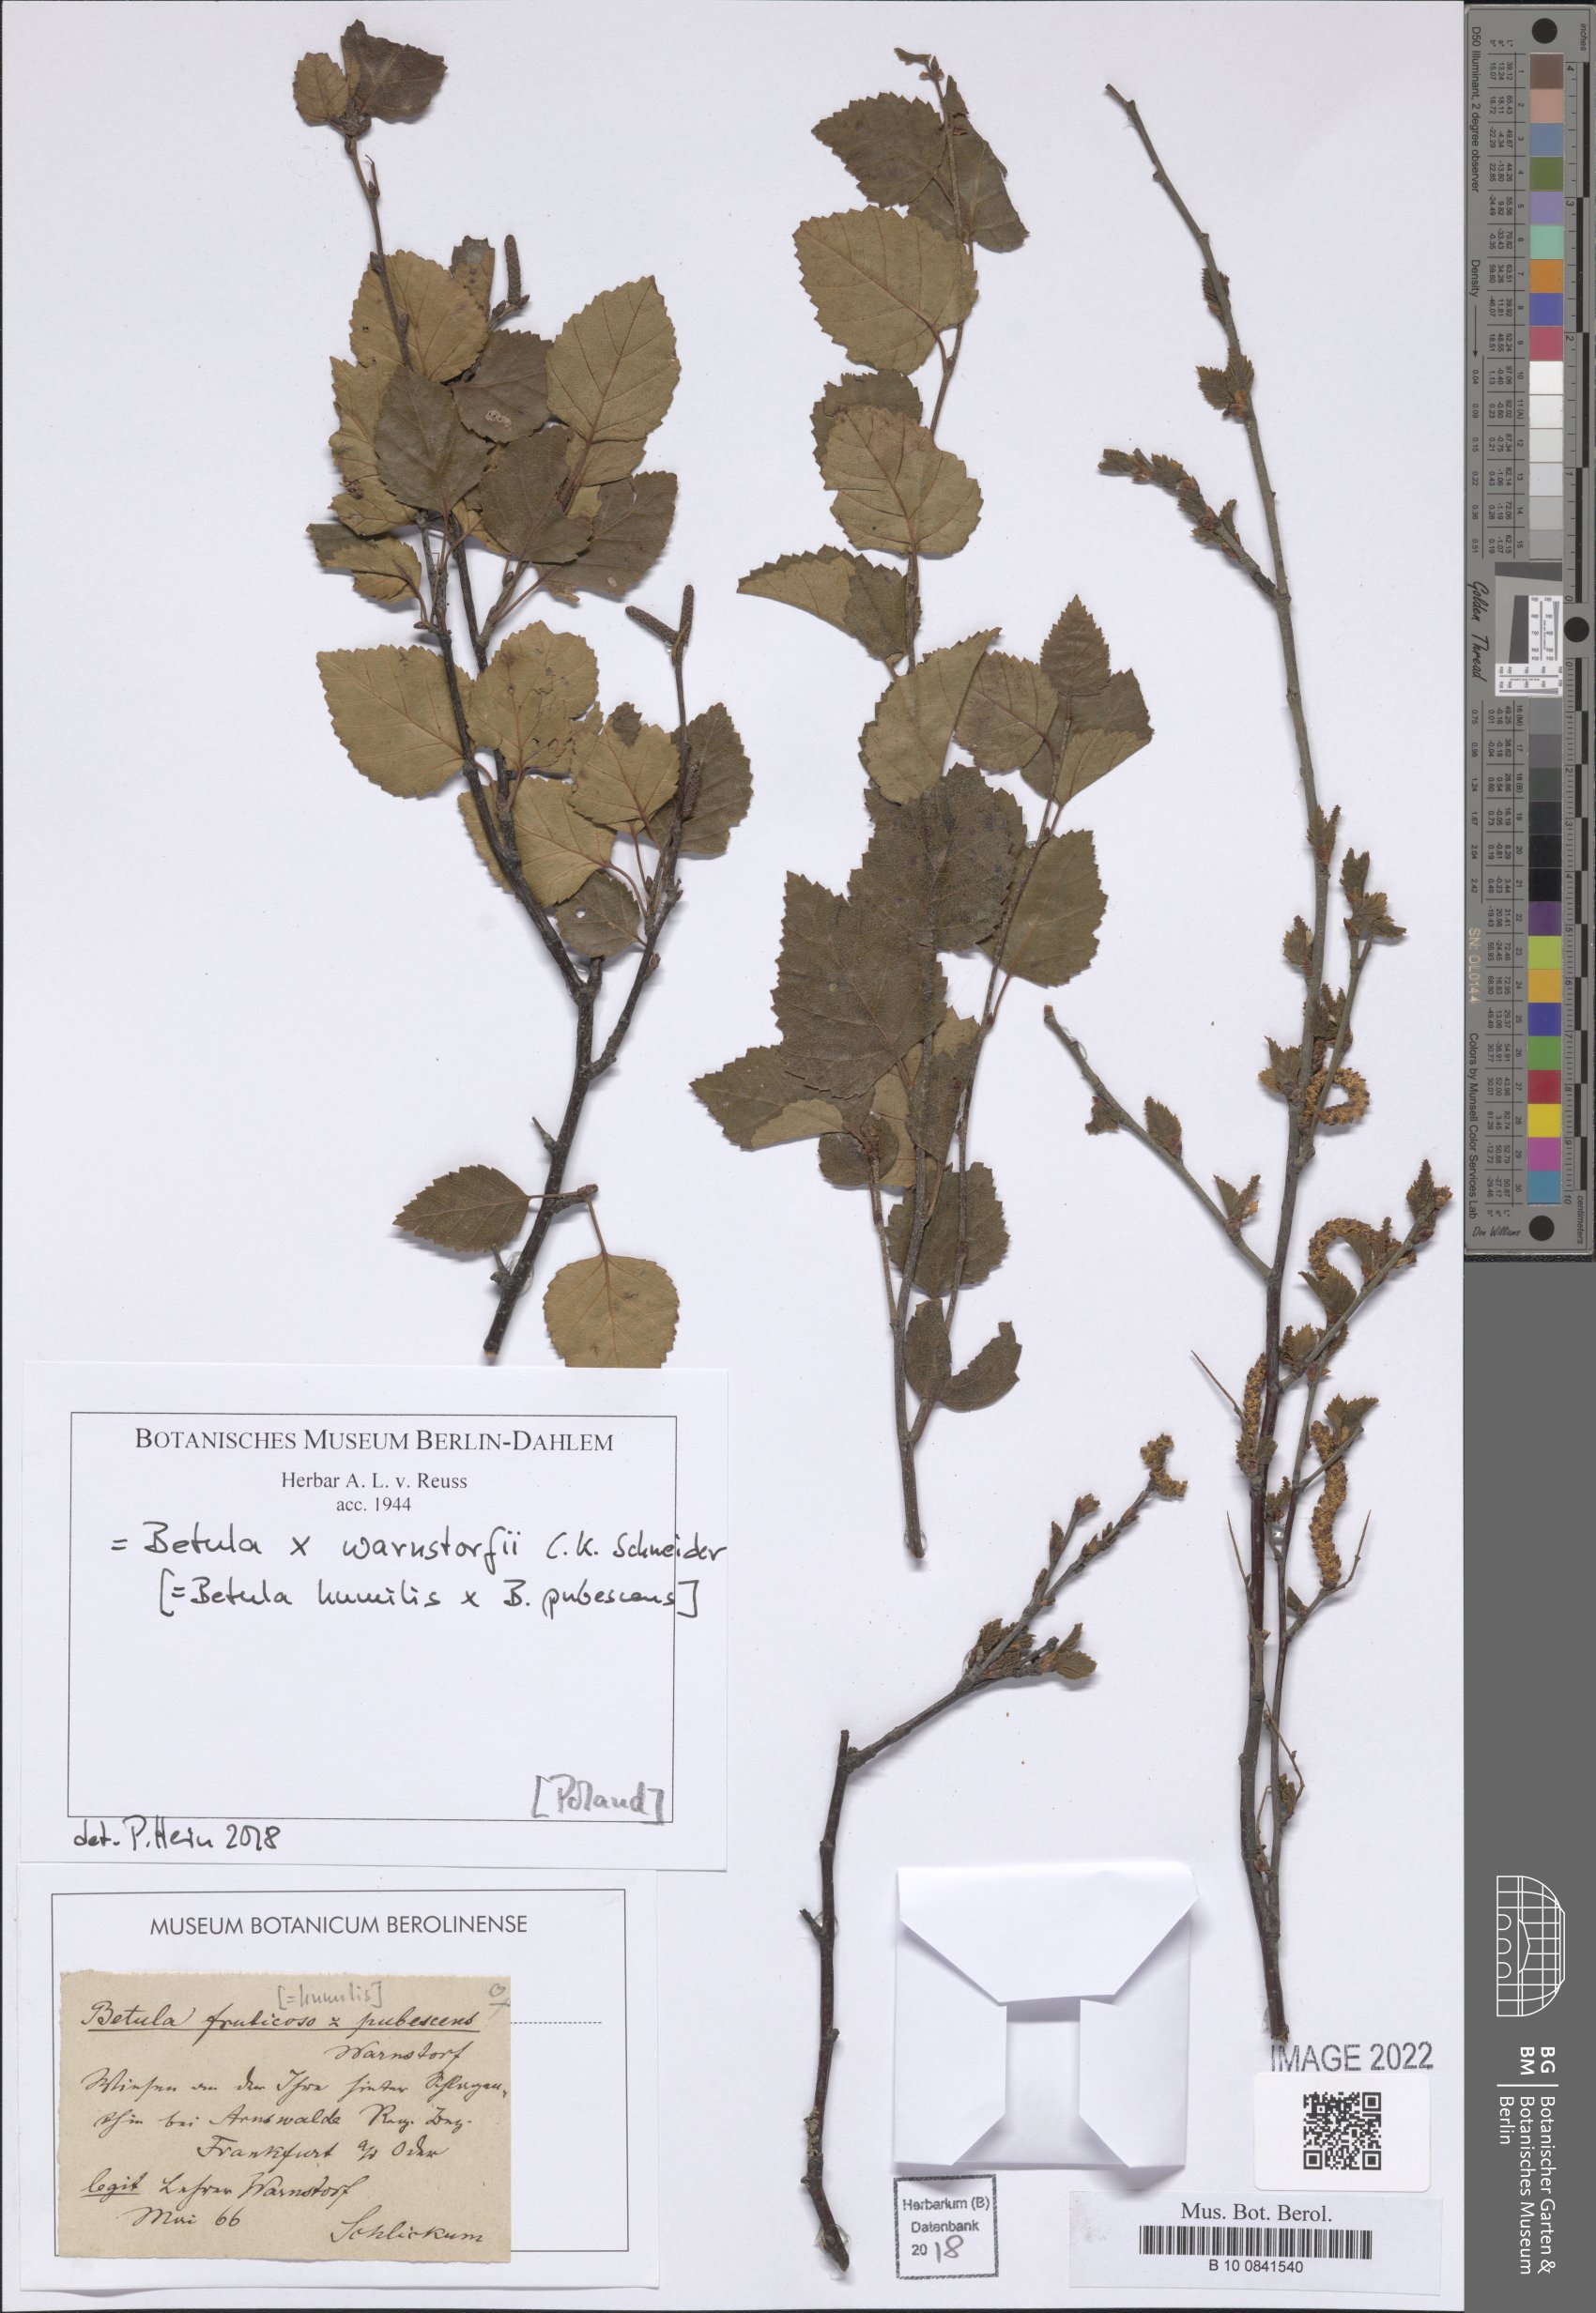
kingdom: Plantae
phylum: Tracheophyta
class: Magnoliopsida
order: Fagales
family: Betulaceae
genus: Betula
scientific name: Betula humilis x pubescens
